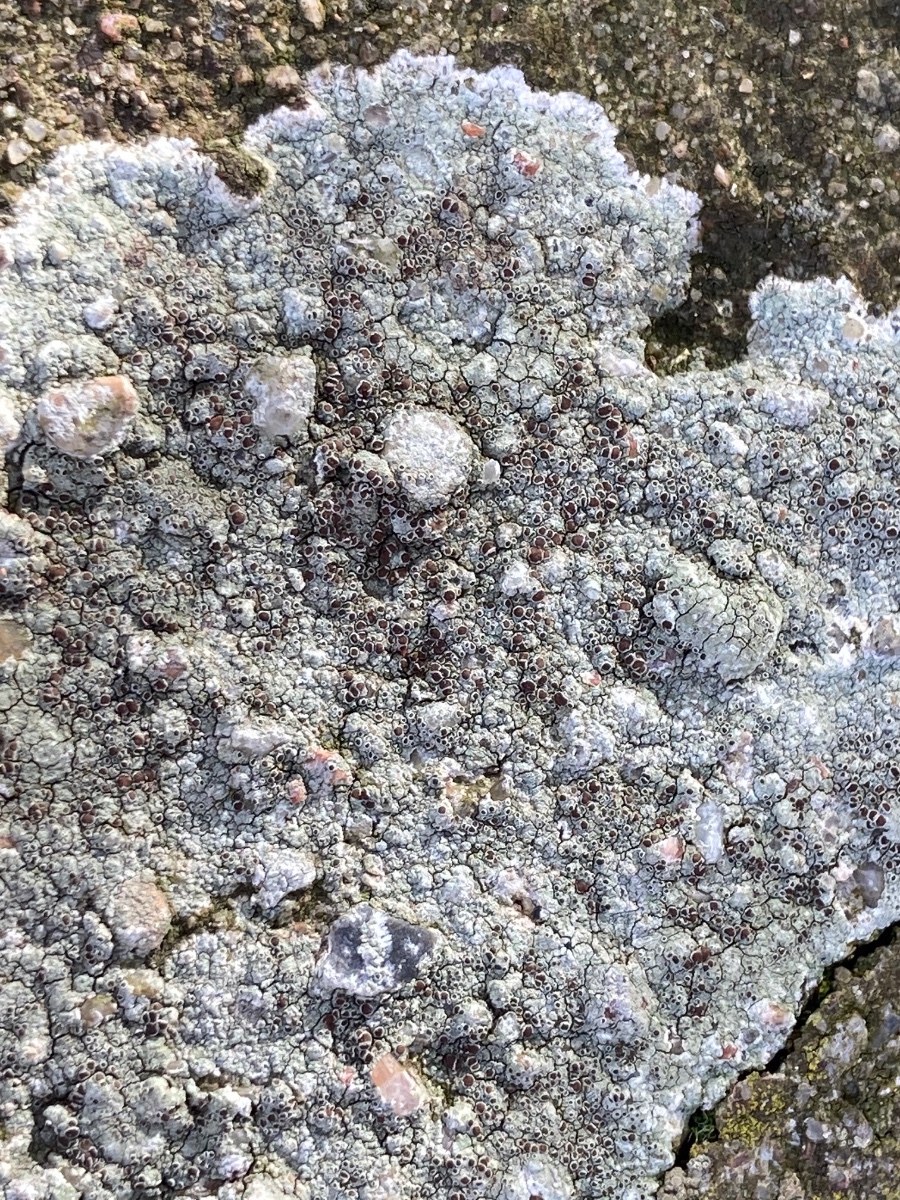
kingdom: Fungi
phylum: Ascomycota
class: Lecanoromycetes
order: Lecanorales
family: Lecanoraceae
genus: Lecanora
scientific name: Lecanora campestris
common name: mur-kantskivelav
